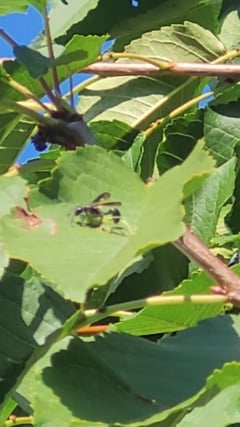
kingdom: Animalia
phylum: Arthropoda
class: Insecta
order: Hymenoptera
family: Sphecidae
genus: Isodontia
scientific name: Isodontia mexicana
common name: Mud dauber
